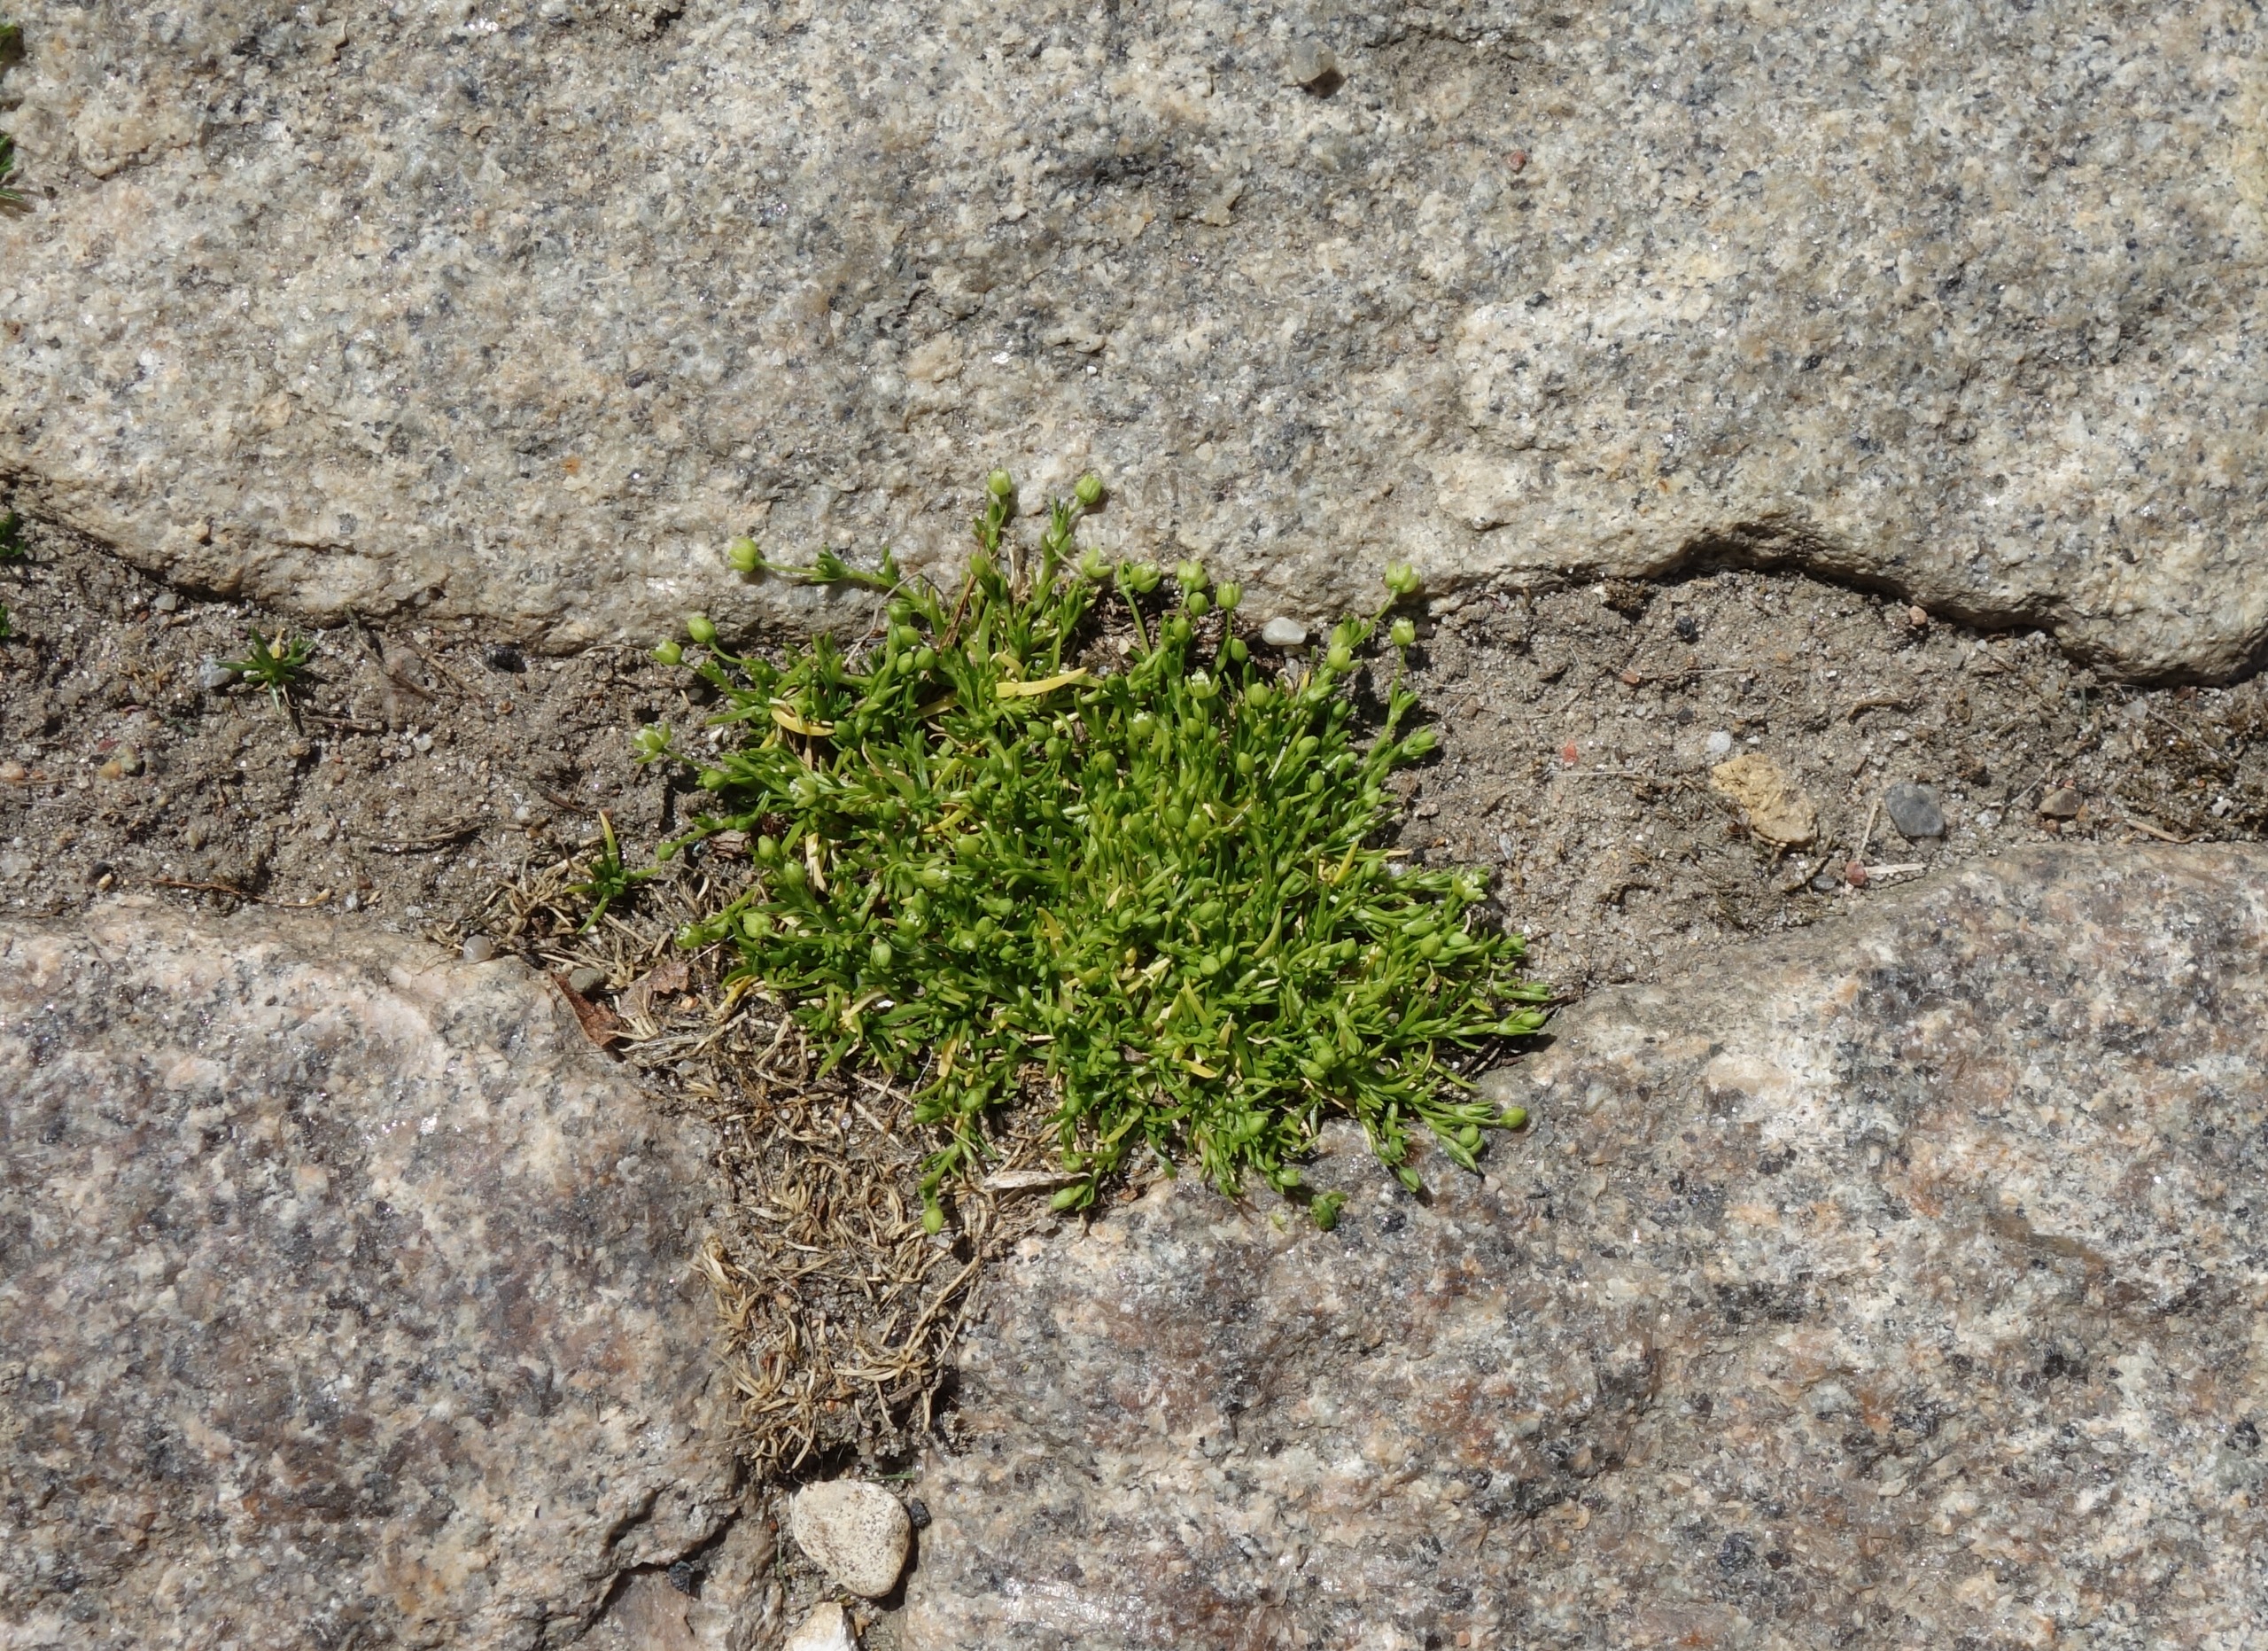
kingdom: Plantae
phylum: Tracheophyta
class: Magnoliopsida
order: Caryophyllales
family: Caryophyllaceae
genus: Sagina
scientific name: Sagina procumbens
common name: Almindelig firling
